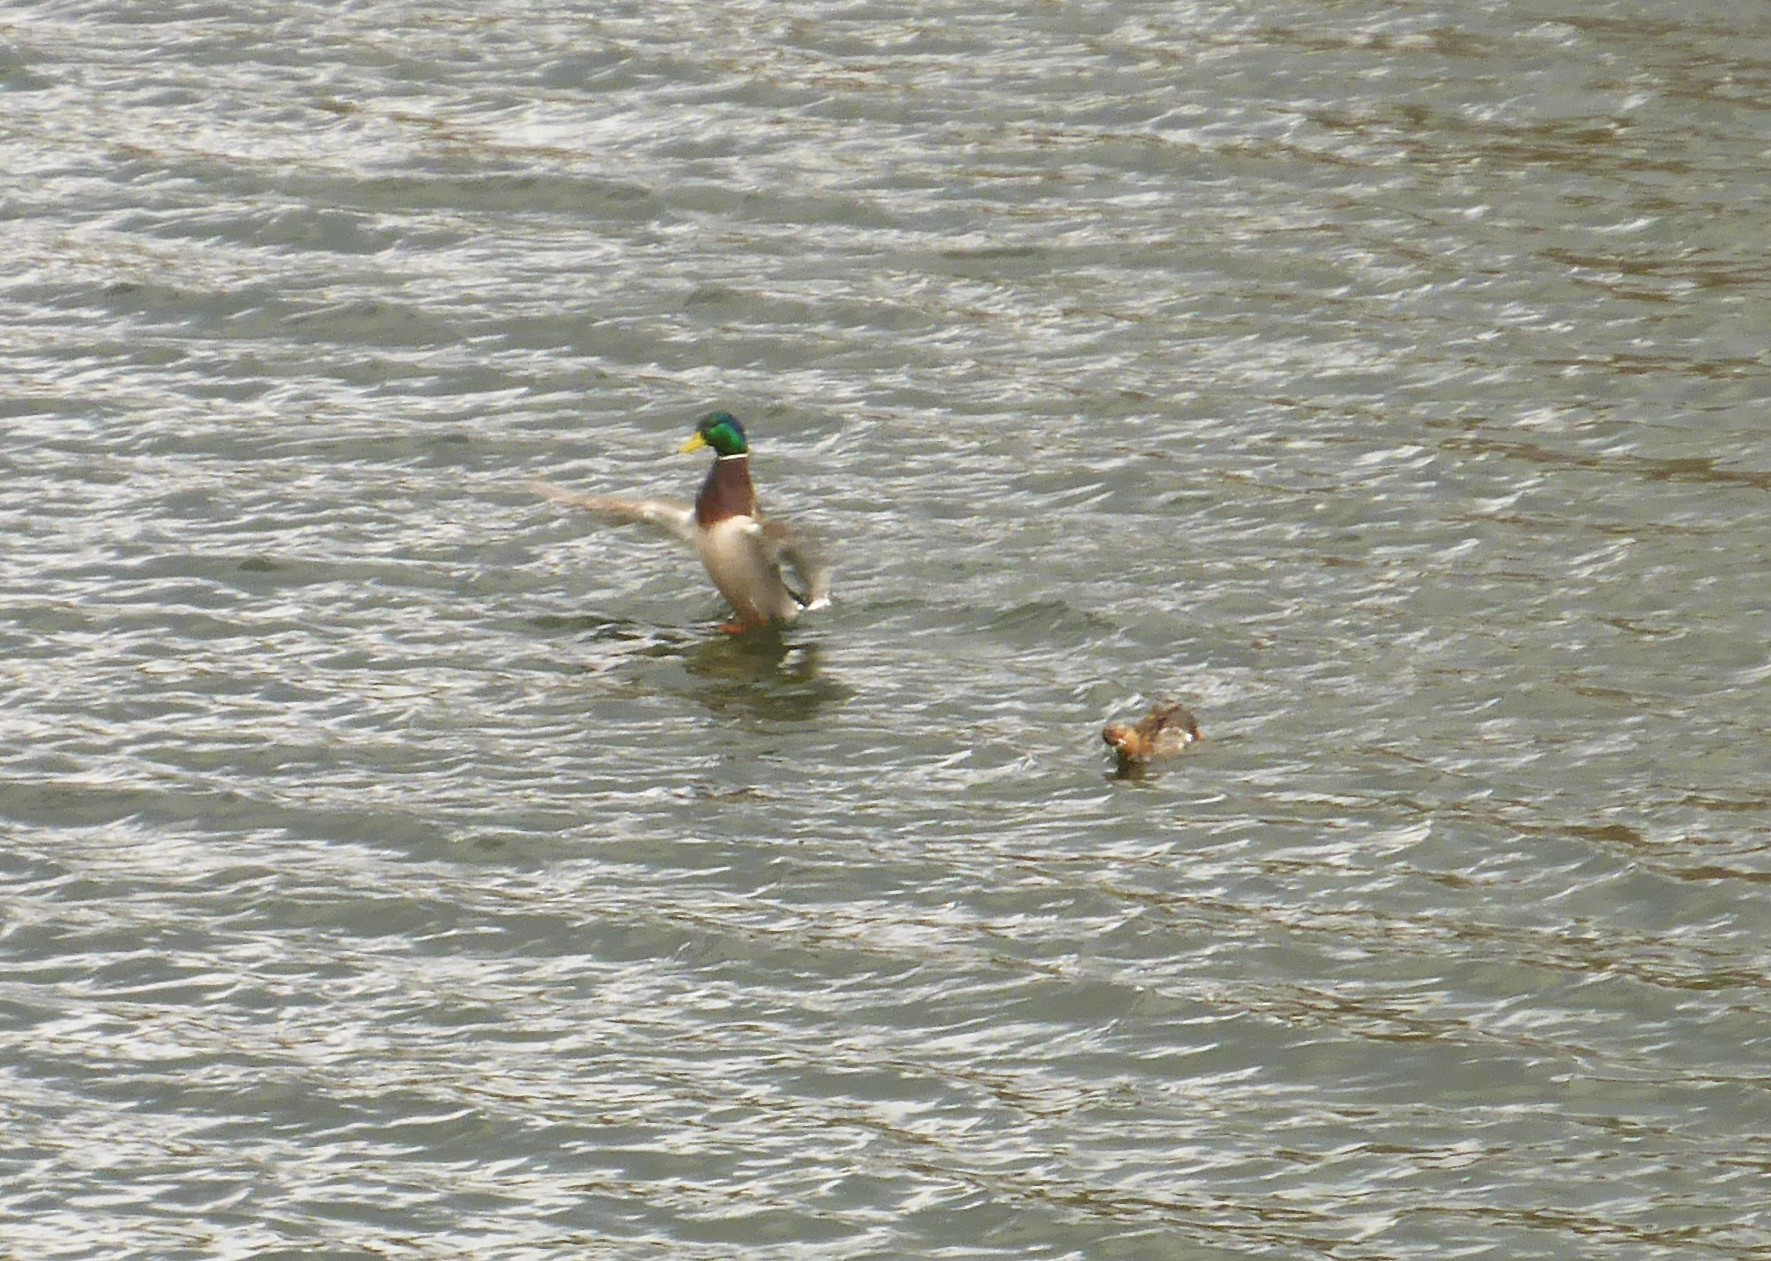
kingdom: Animalia
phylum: Chordata
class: Aves
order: Anseriformes
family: Anatidae
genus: Anas
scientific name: Anas platyrhynchos
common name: Gråand
